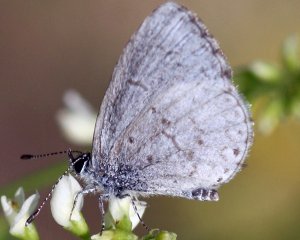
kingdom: Animalia
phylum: Arthropoda
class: Insecta
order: Lepidoptera
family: Lycaenidae
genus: Cyaniris
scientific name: Cyaniris neglecta
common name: Summer Azure
